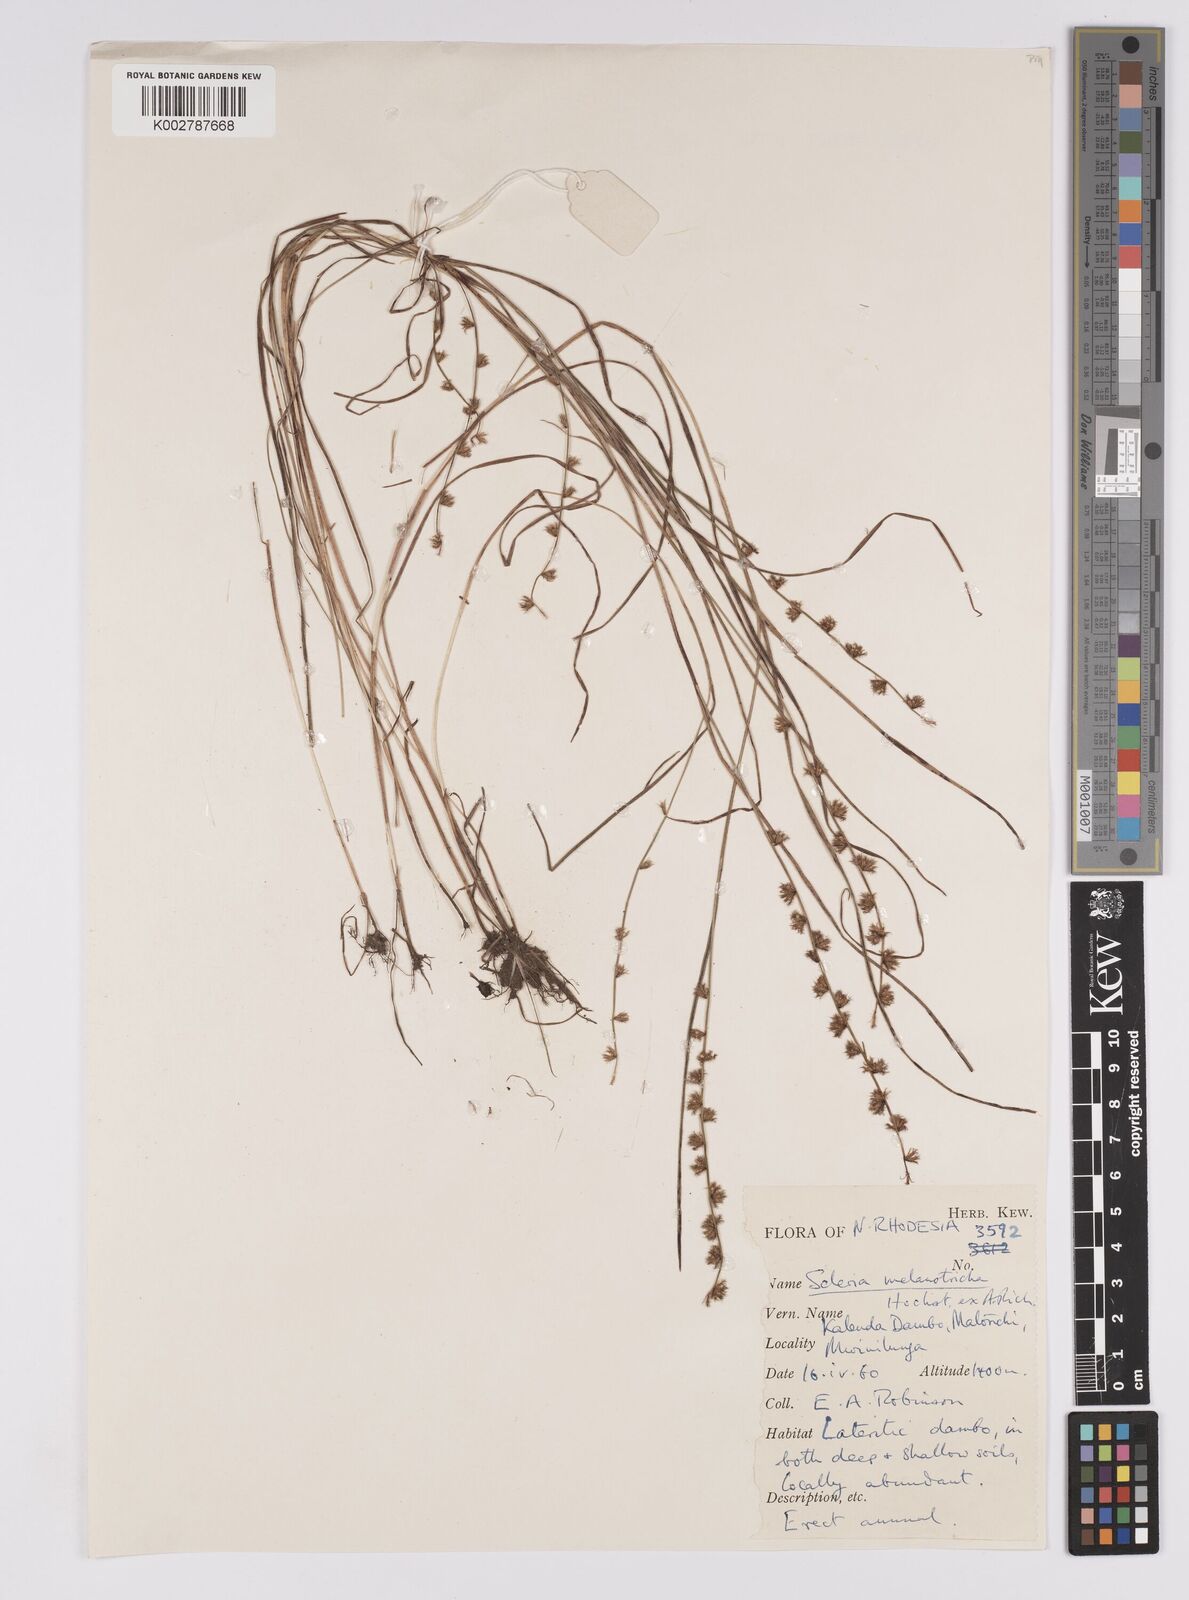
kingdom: Plantae
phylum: Tracheophyta
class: Liliopsida
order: Poales
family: Cyperaceae
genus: Scleria
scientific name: Scleria melanotricha
